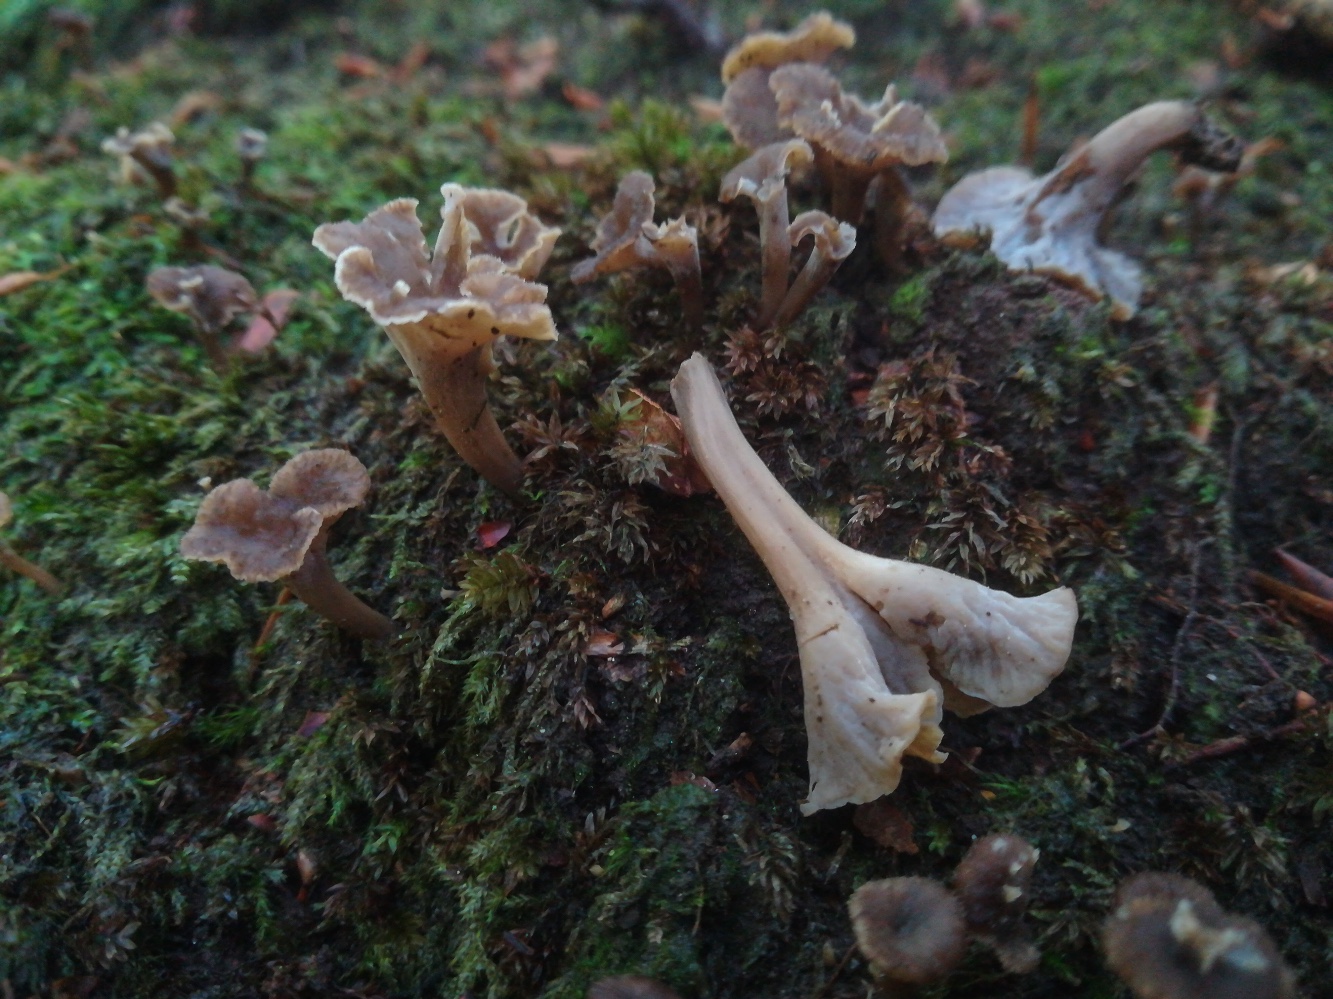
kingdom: Fungi
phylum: Basidiomycota
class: Agaricomycetes
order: Cantharellales
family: Hydnaceae
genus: Craterellus
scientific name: Craterellus undulatus
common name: liden kantarel
